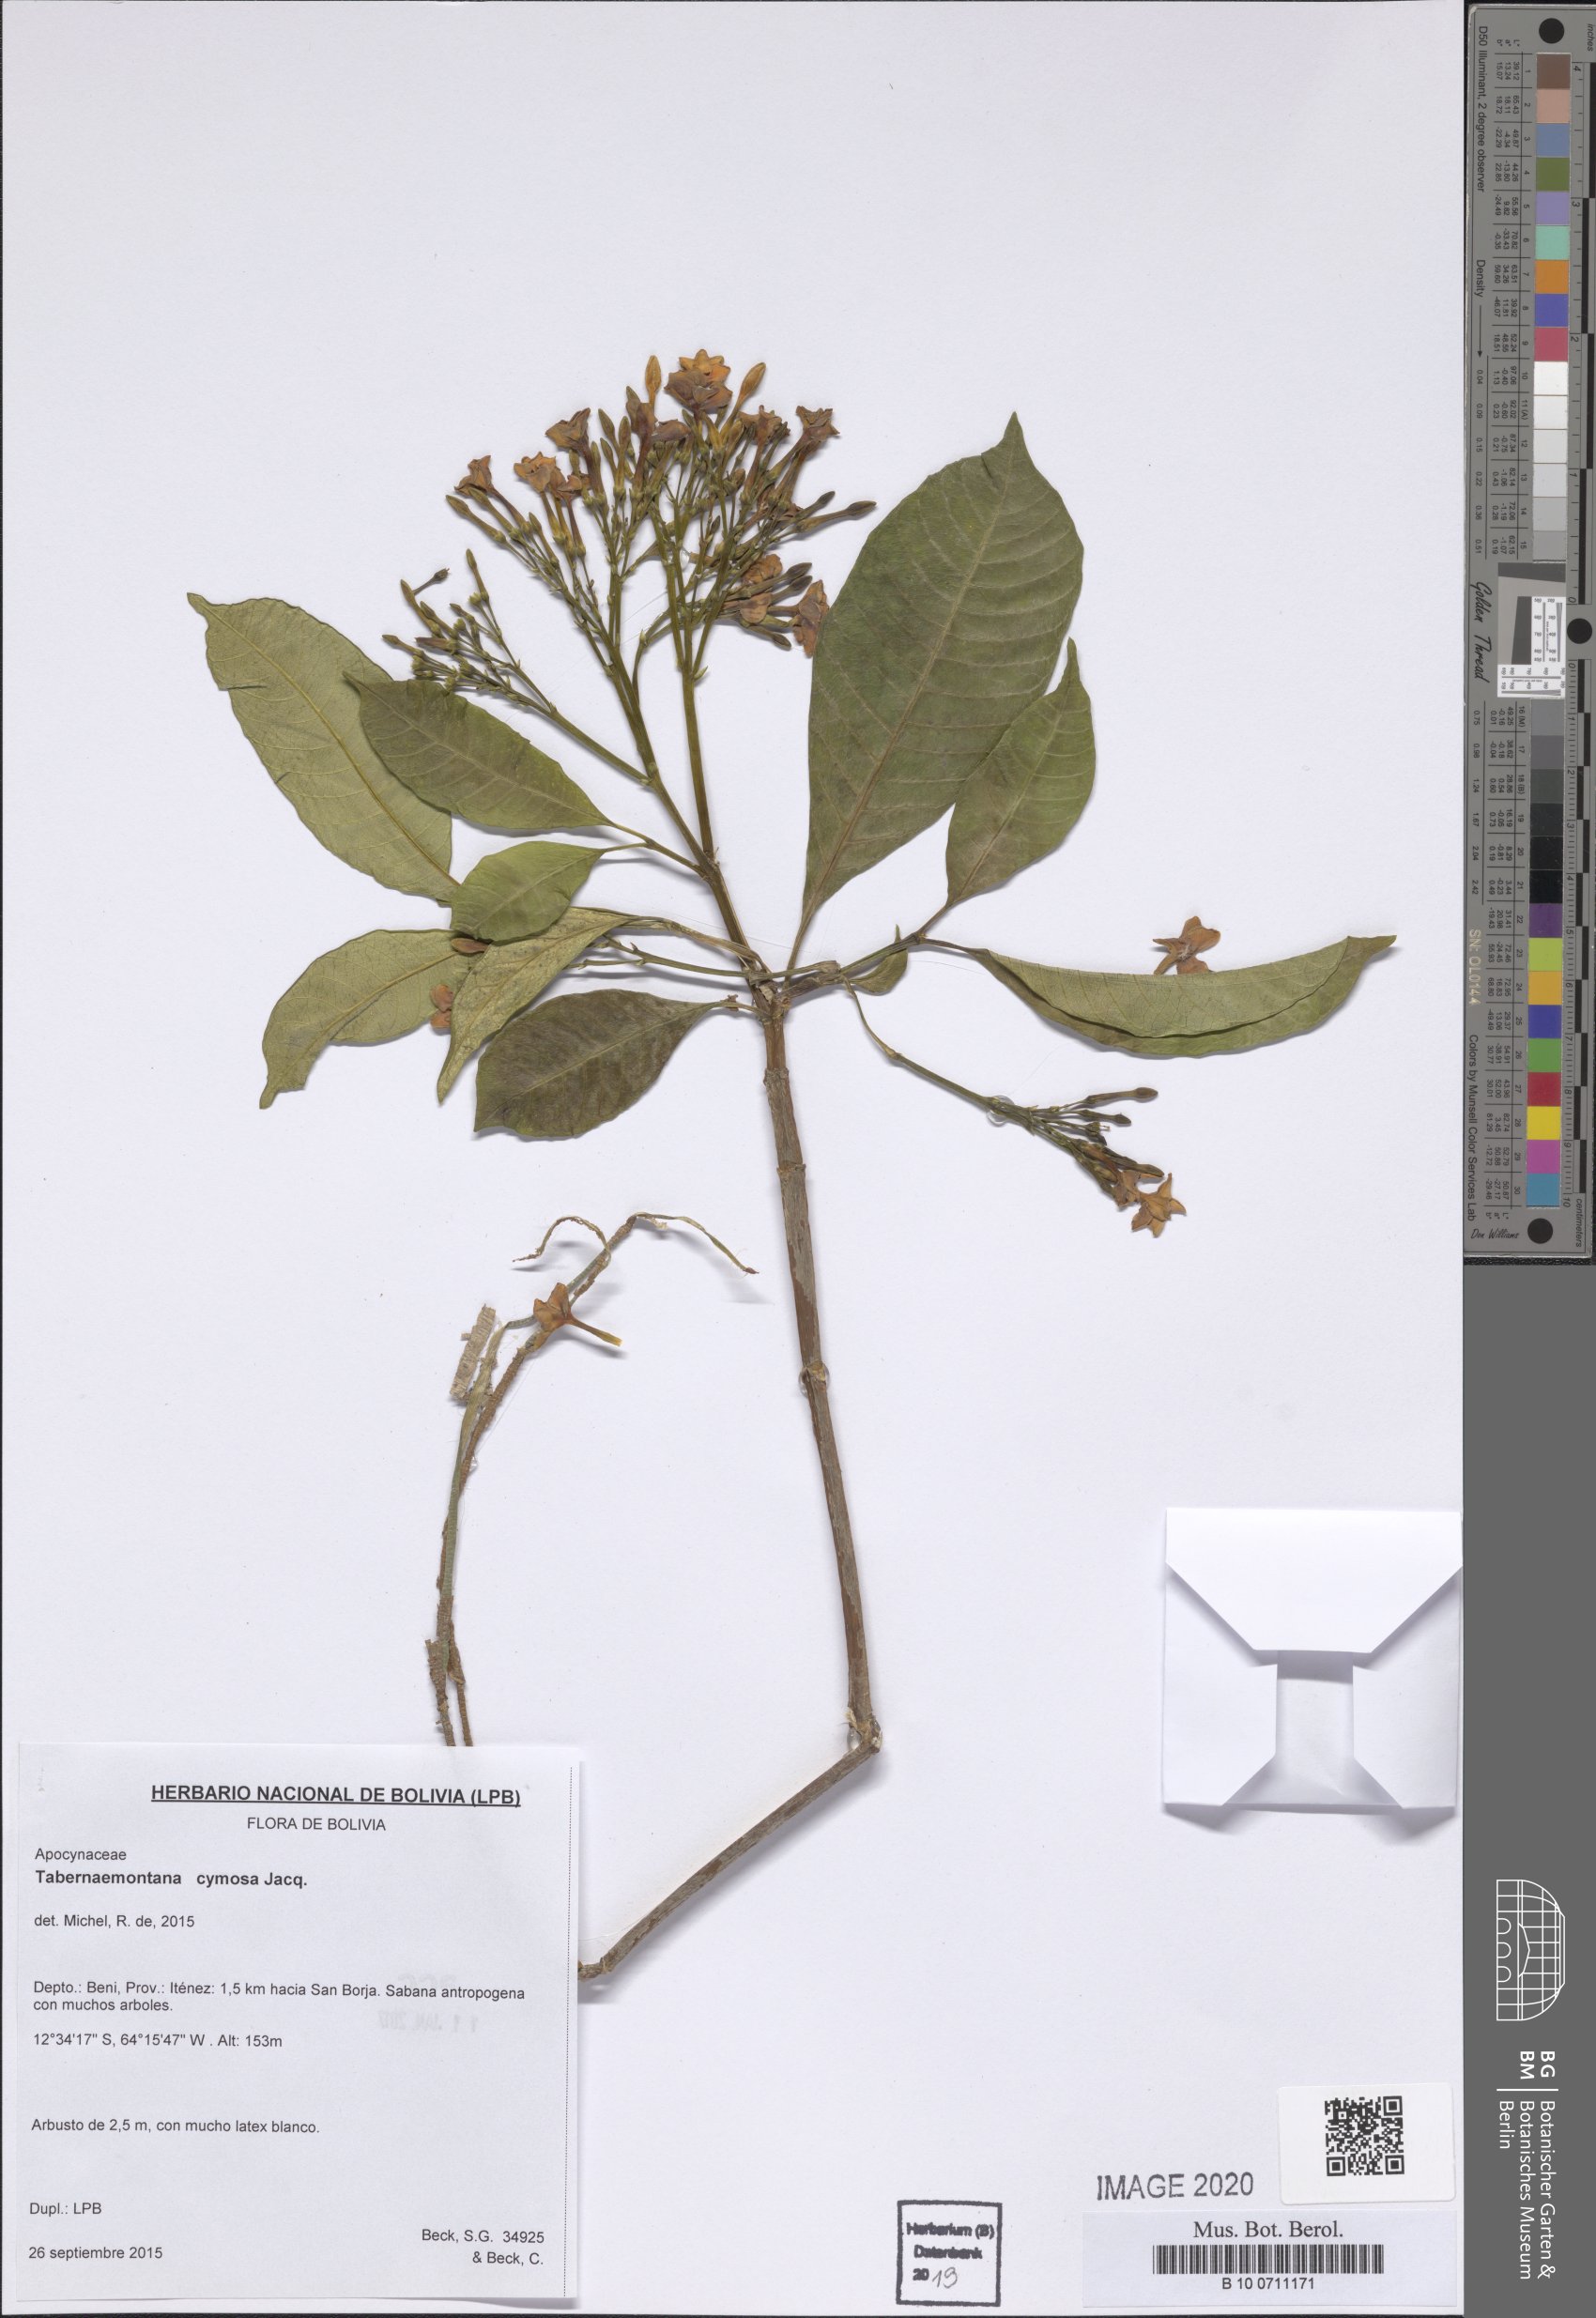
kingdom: Plantae
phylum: Tracheophyta
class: Magnoliopsida
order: Gentianales
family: Apocynaceae
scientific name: Apocynaceae
